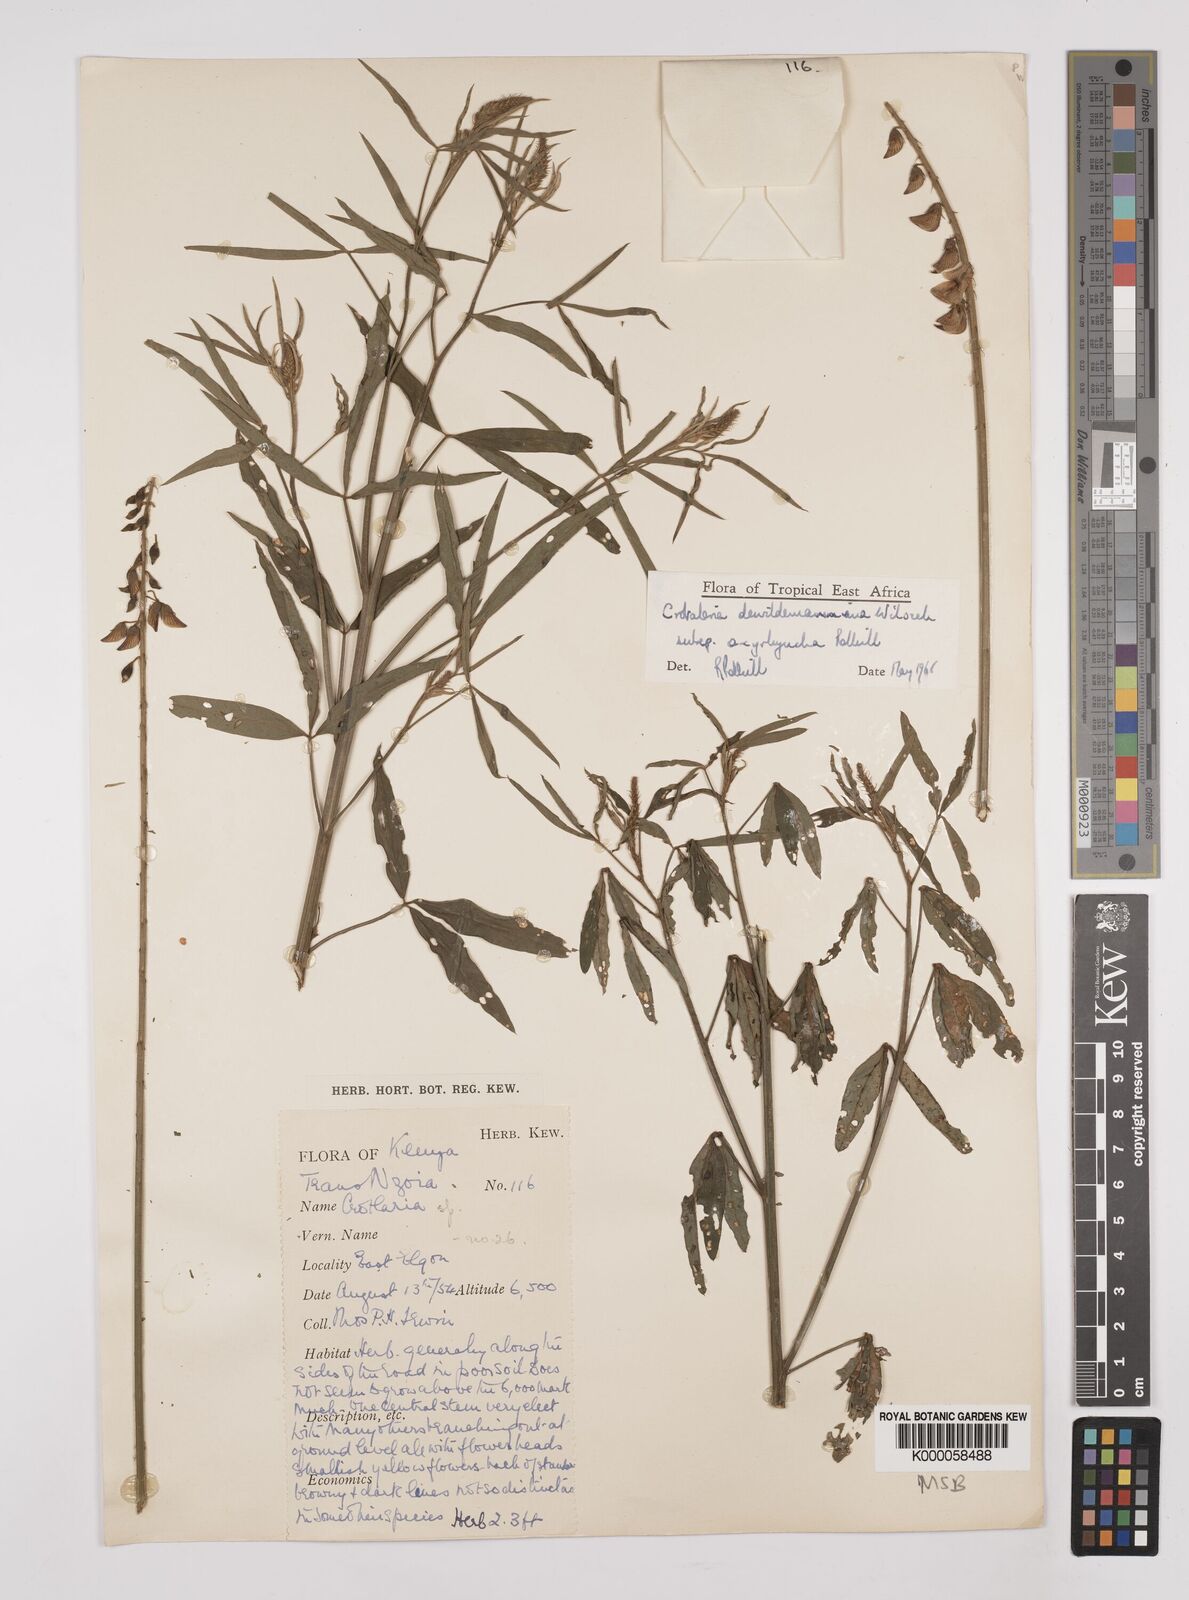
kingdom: Plantae
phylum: Tracheophyta
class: Magnoliopsida
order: Fabales
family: Fabaceae
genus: Crotalaria
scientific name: Crotalaria dewildemaniana
